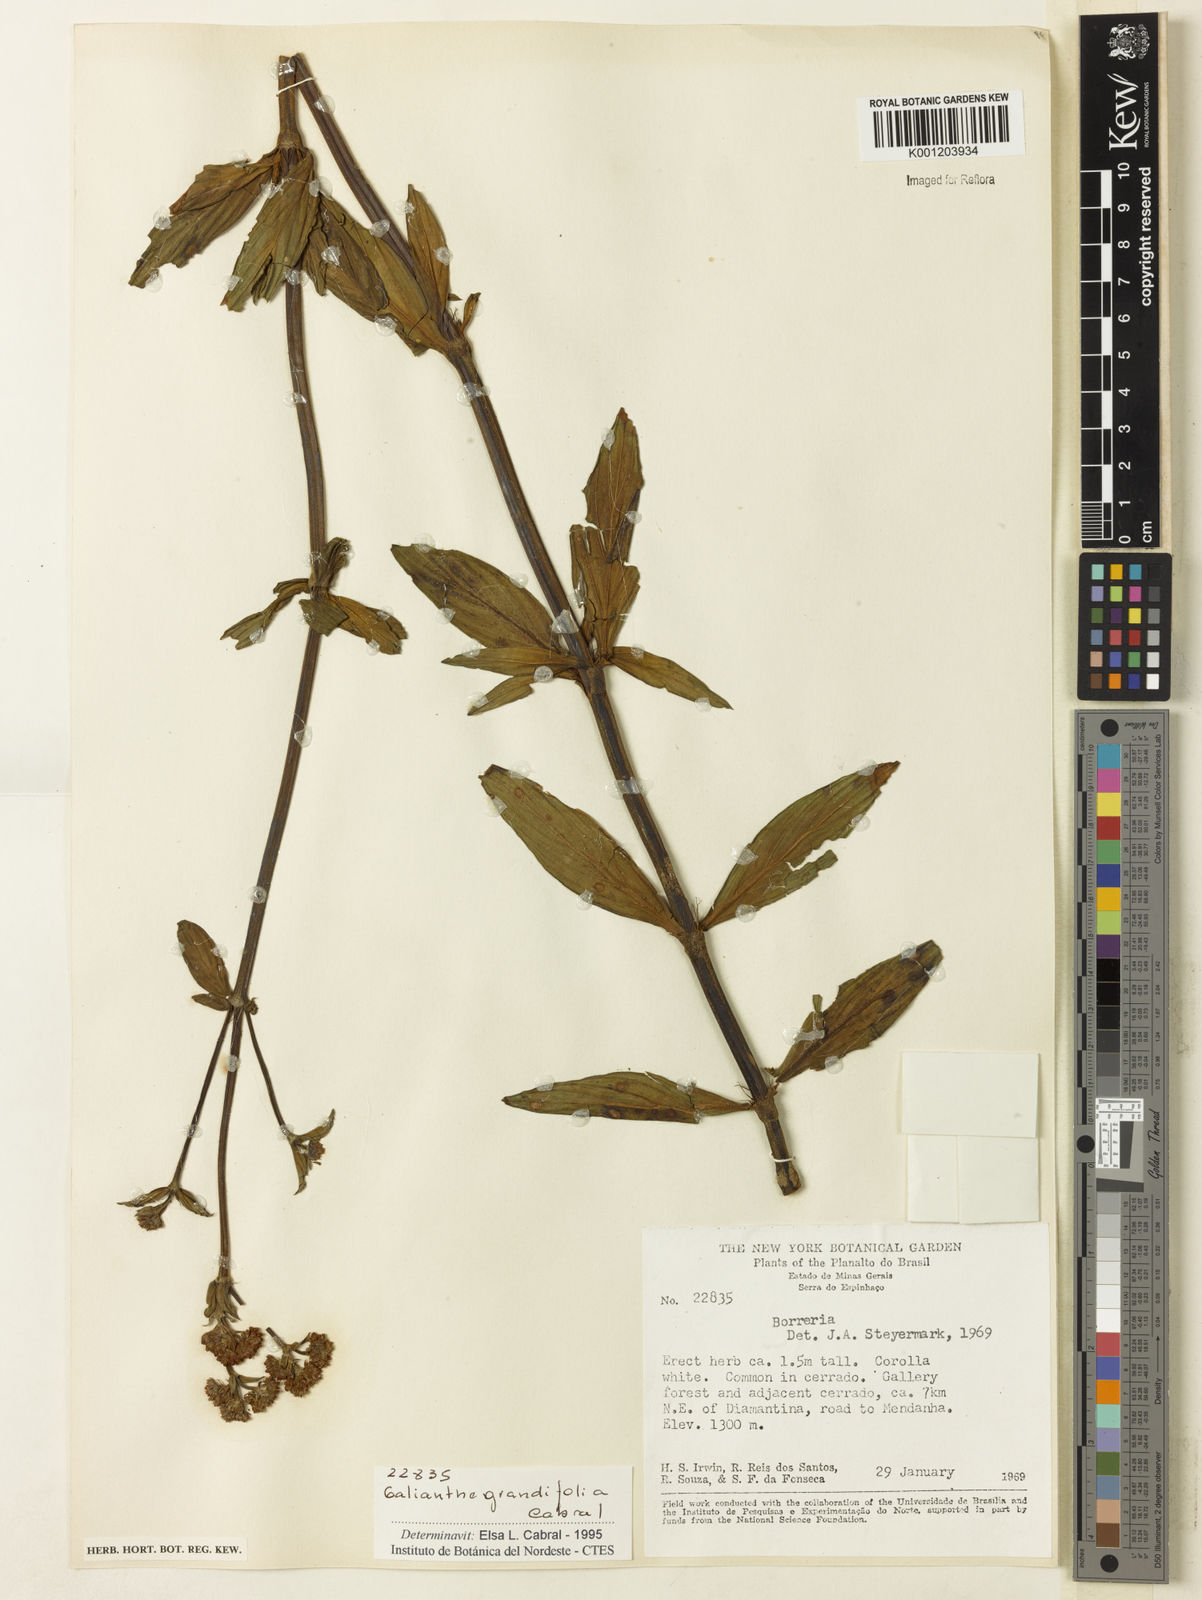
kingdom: Plantae
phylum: Tracheophyta
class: Magnoliopsida
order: Gentianales
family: Rubiaceae
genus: Galianthe
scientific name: Galianthe grandifolia
